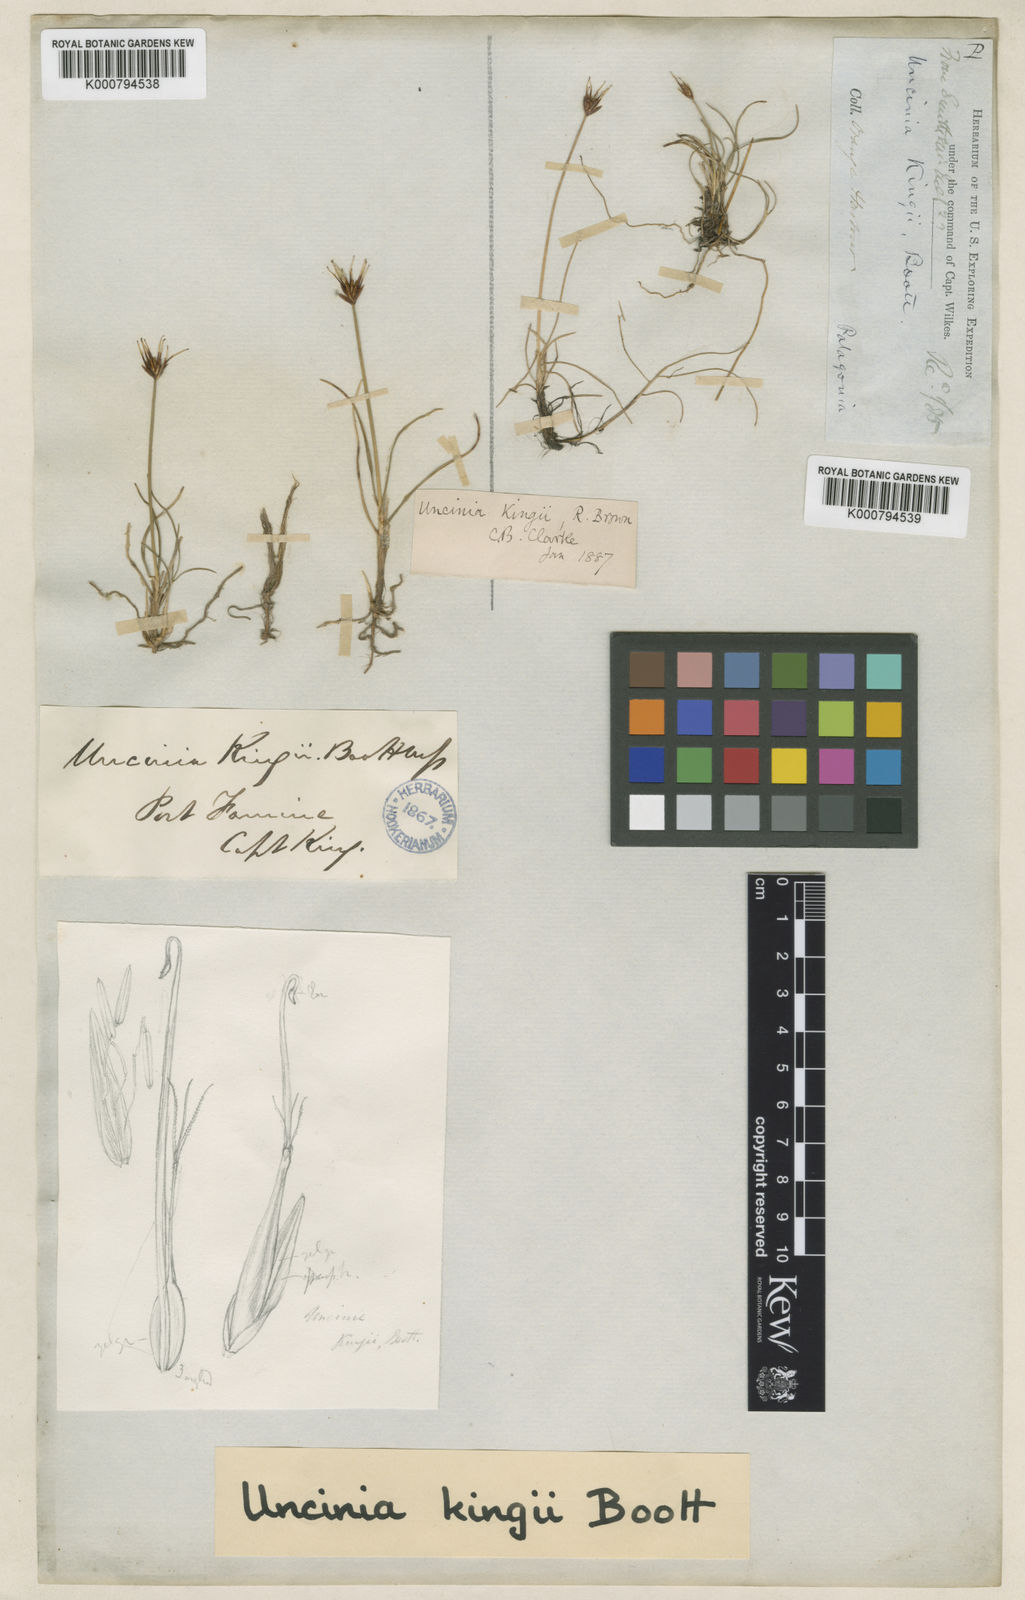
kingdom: Plantae
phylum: Tracheophyta
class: Liliopsida
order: Poales
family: Cyperaceae
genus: Carex
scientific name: Carex kingii
